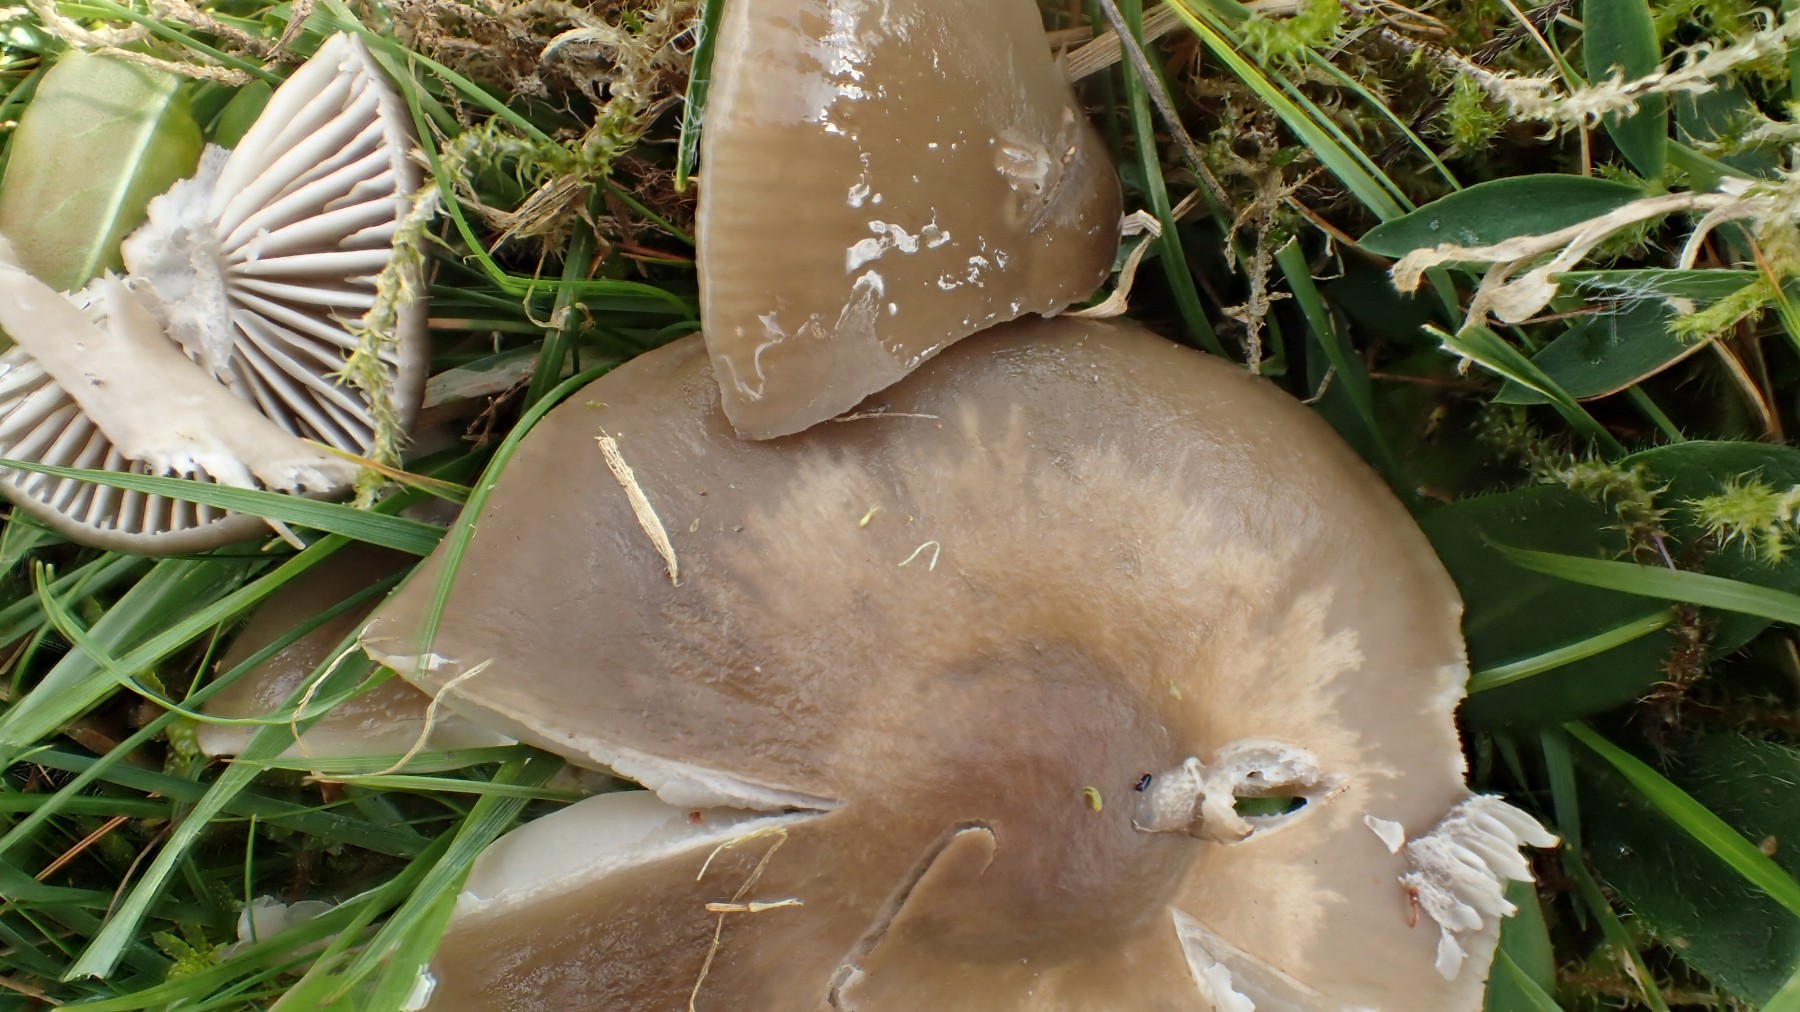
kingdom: Fungi
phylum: Basidiomycota
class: Agaricomycetes
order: Agaricales
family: Hygrophoraceae
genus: Gliophorus
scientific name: Gliophorus irrigatus
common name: slimet vokshat
